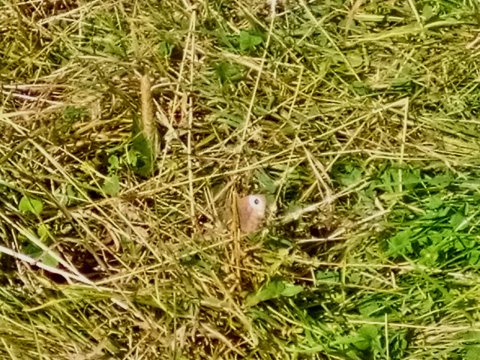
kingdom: Animalia
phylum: Arthropoda
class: Insecta
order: Lepidoptera
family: Nymphalidae
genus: Cercyonis
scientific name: Cercyonis pegala
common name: Common Wood-Nymph
